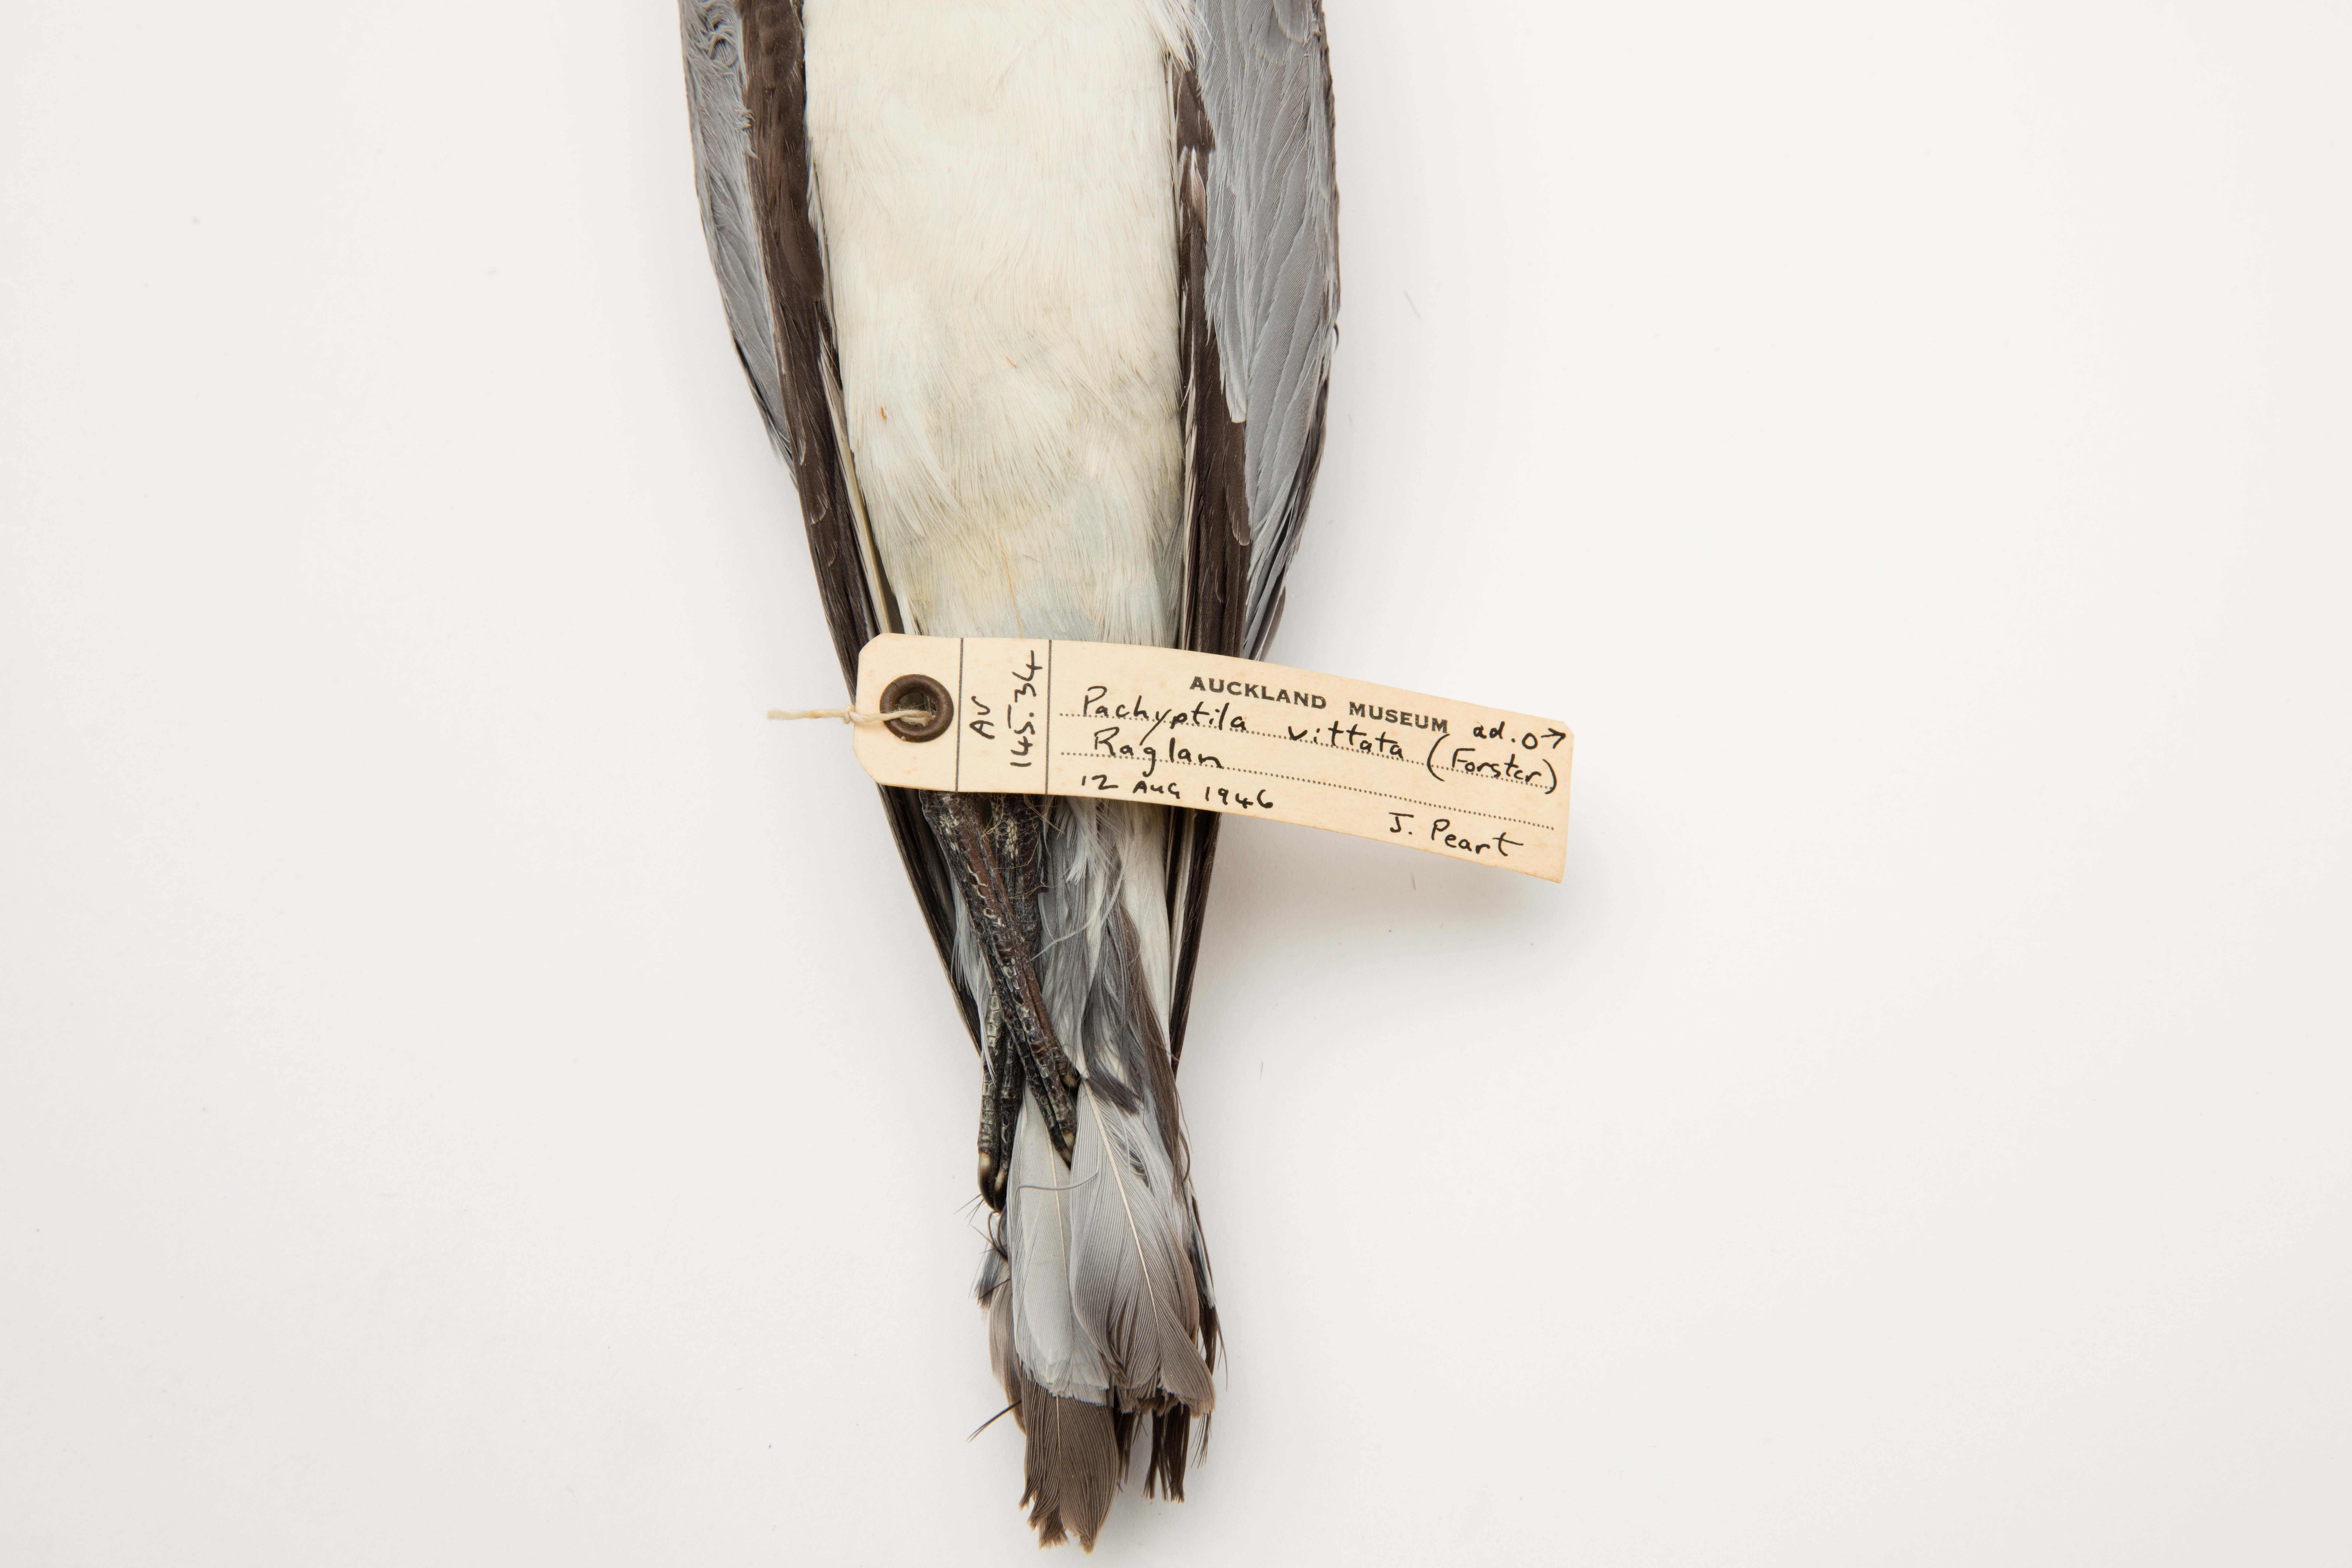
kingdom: Animalia
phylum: Chordata
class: Aves
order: Procellariiformes
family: Procellariidae
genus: Pachyptila
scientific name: Pachyptila vittata
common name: Broad-billed prion
